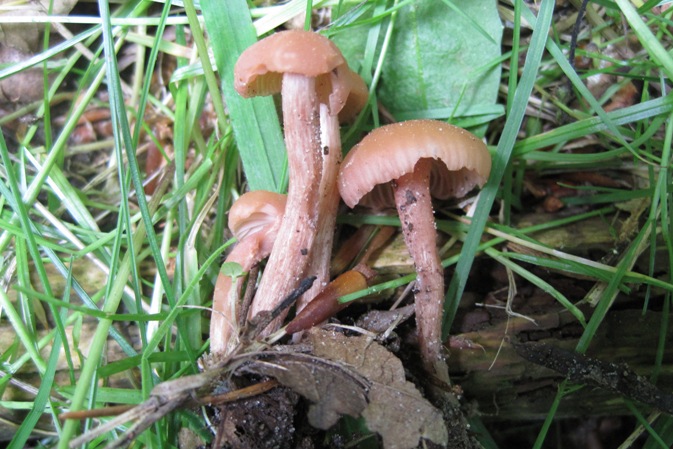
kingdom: Fungi
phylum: Basidiomycota
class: Agaricomycetes
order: Agaricales
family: Hydnangiaceae
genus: Laccaria
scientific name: Laccaria laccata
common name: rød ametysthat
